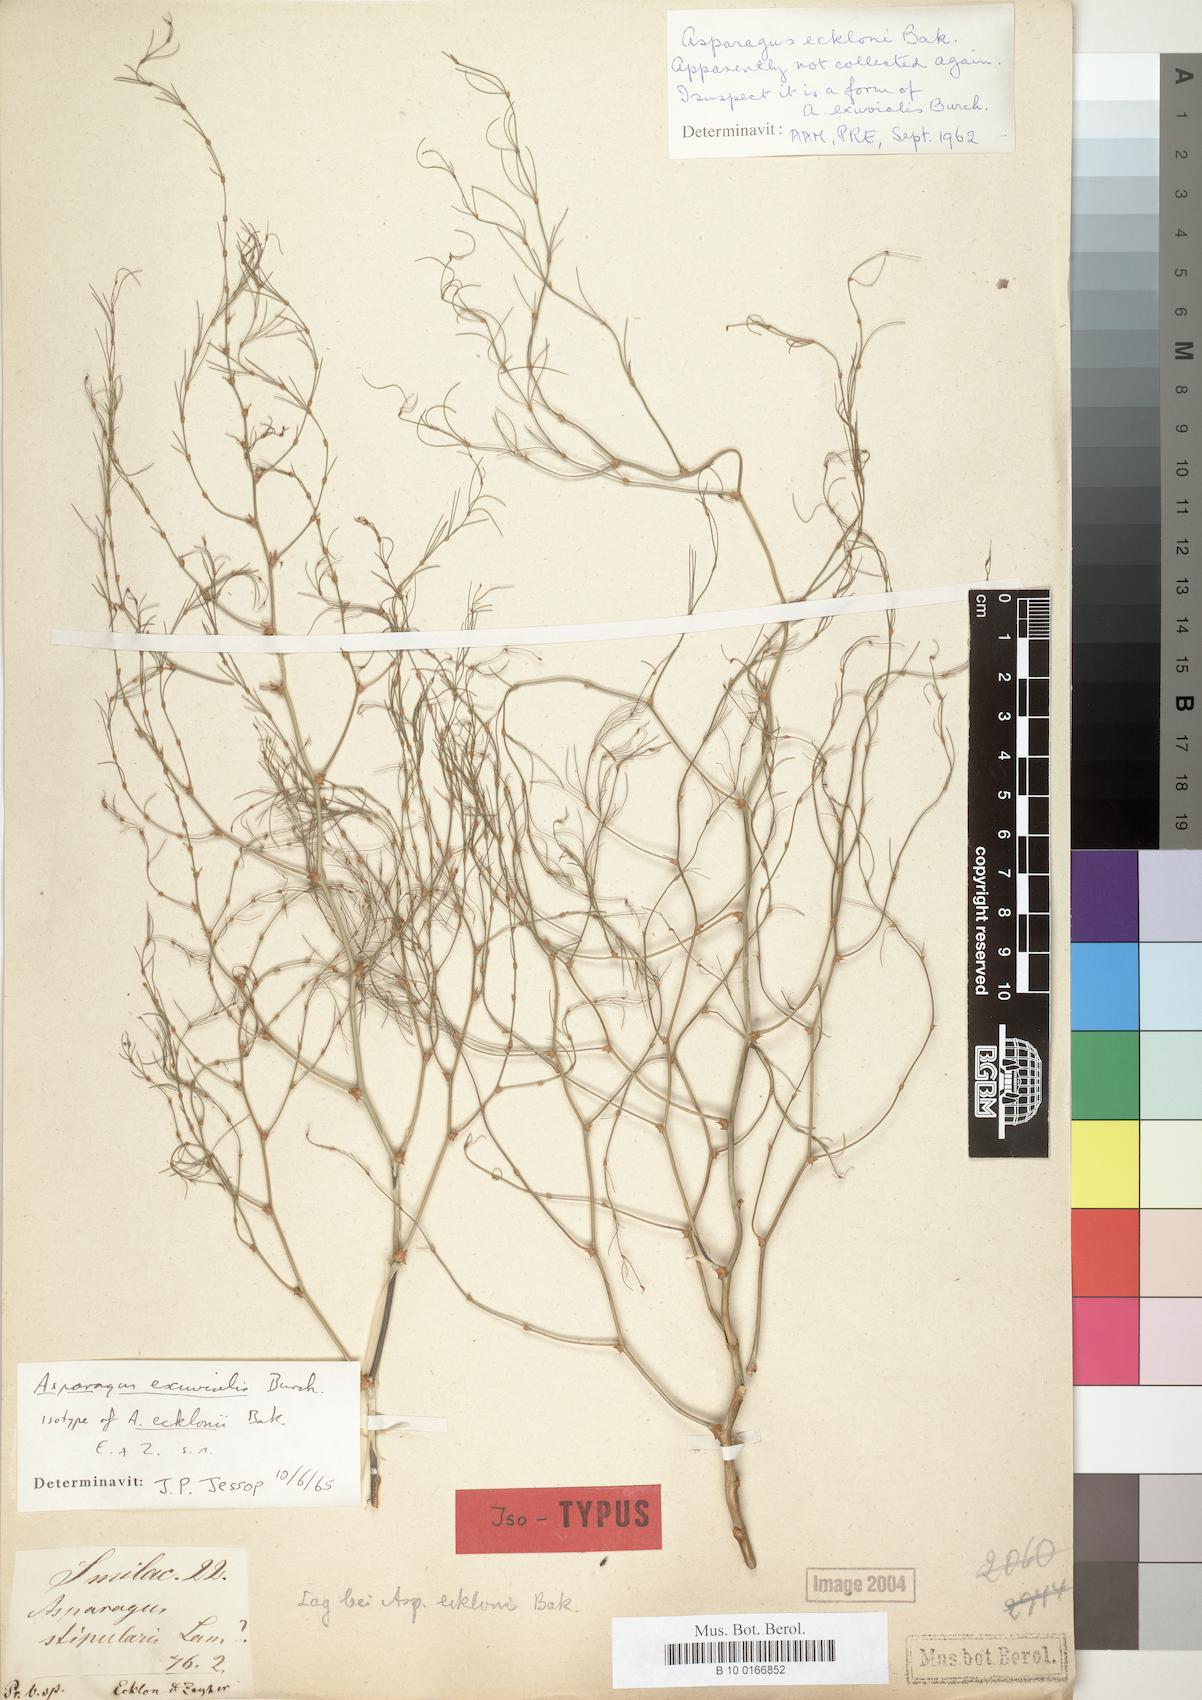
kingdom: Plantae
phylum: Tracheophyta
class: Liliopsida
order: Asparagales
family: Asparagaceae
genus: Asparagus
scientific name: Asparagus exuvialis
